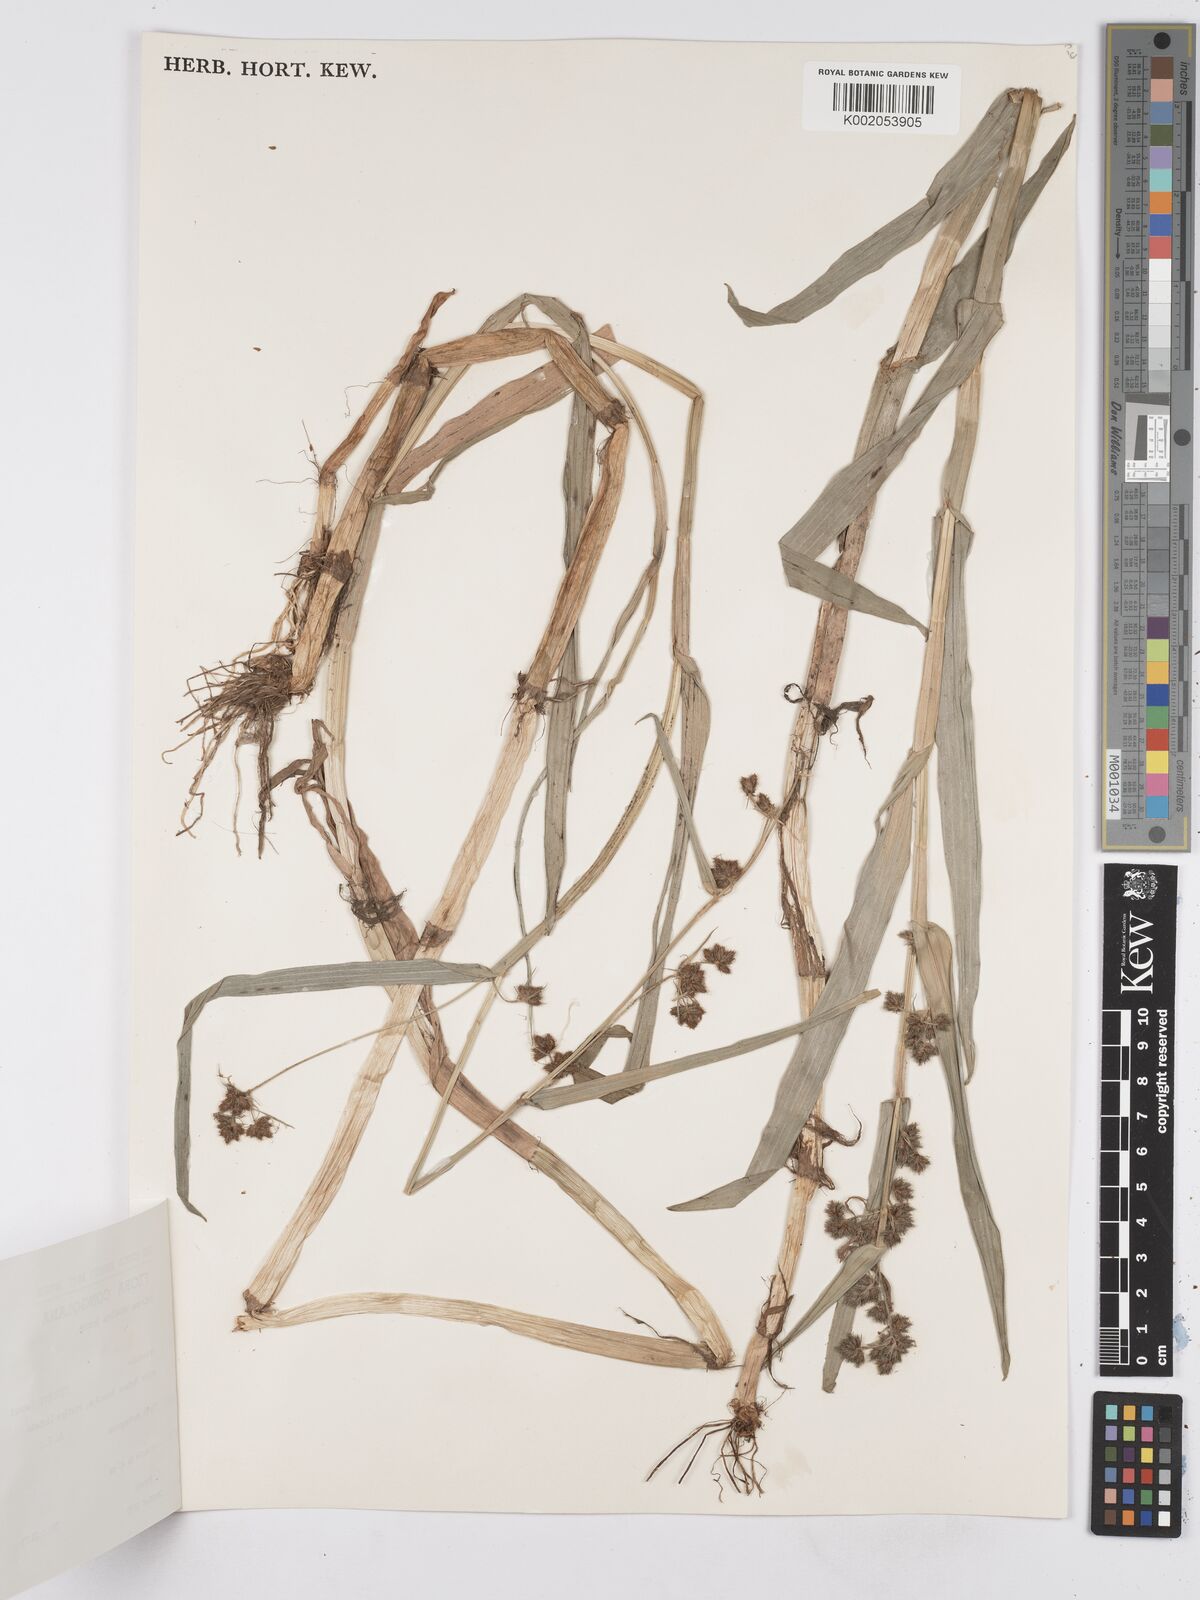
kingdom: Plantae
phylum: Tracheophyta
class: Liliopsida
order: Poales
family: Cyperaceae
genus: Fuirena
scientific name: Fuirena umbellata
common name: Yefen
